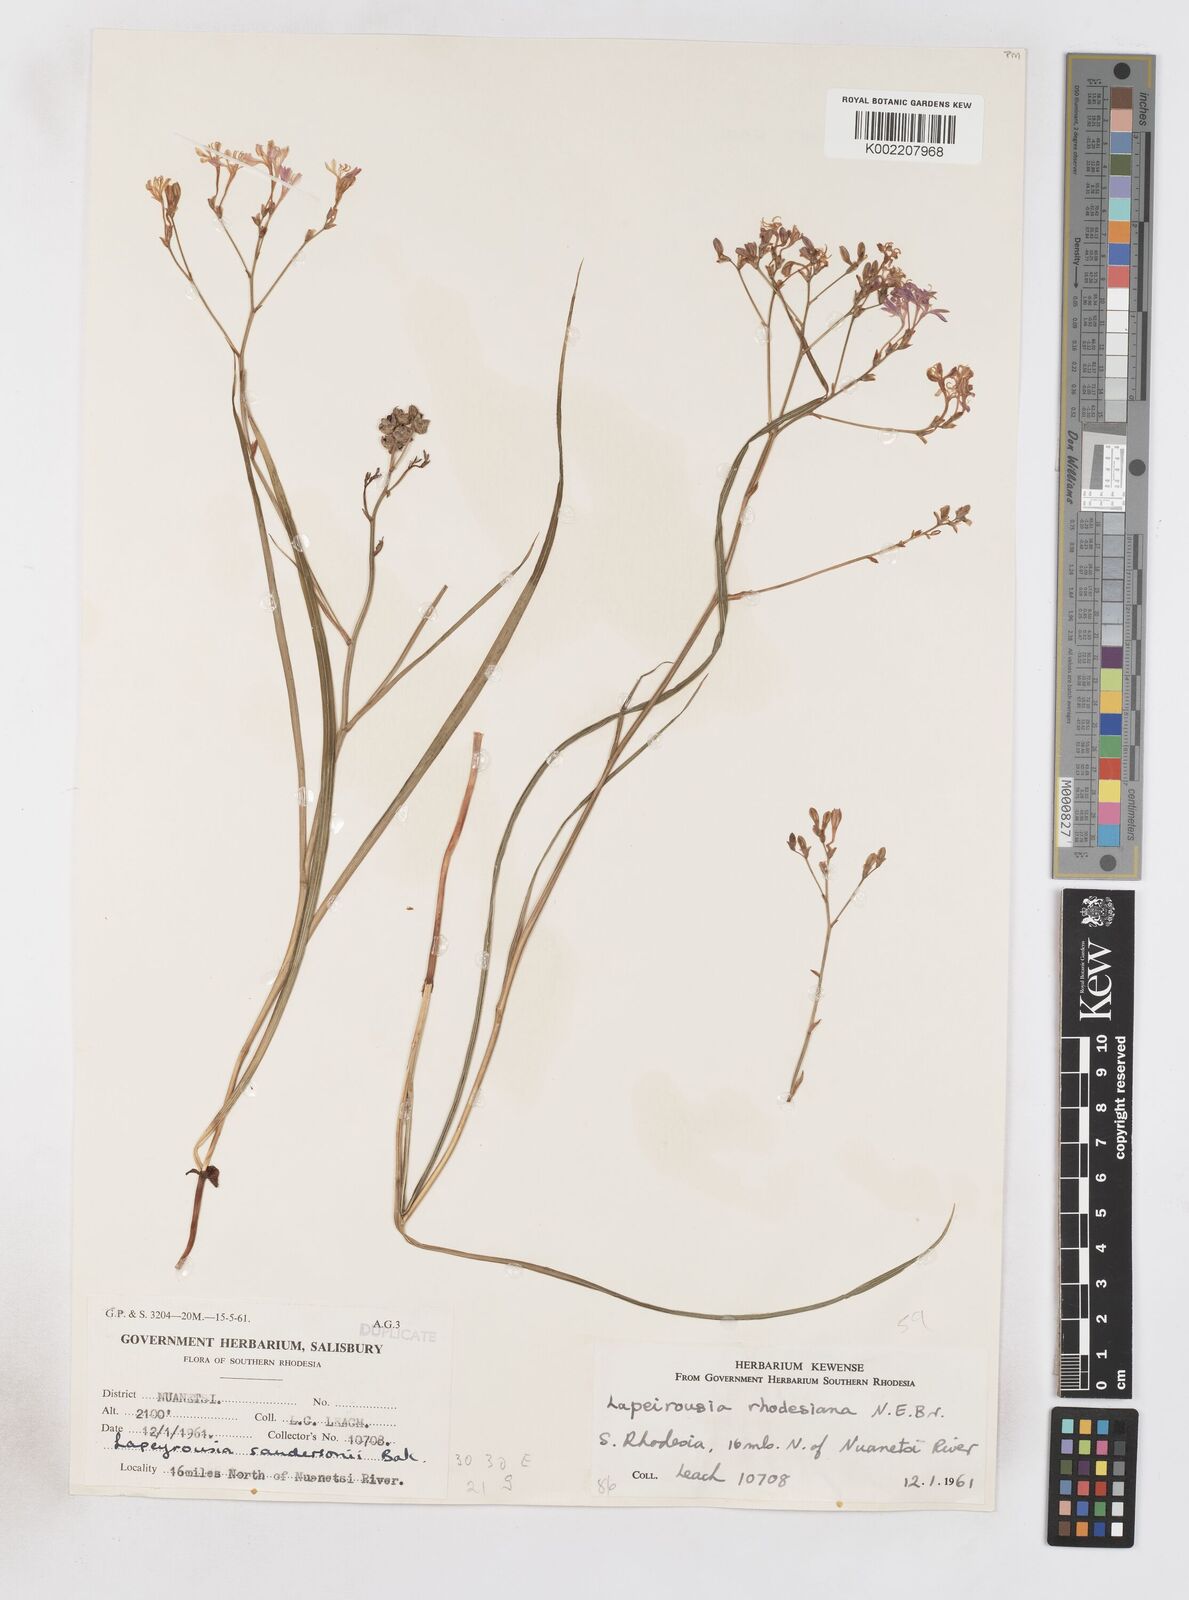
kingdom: Plantae
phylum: Tracheophyta
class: Liliopsida
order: Asparagales
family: Iridaceae
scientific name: Iridaceae
